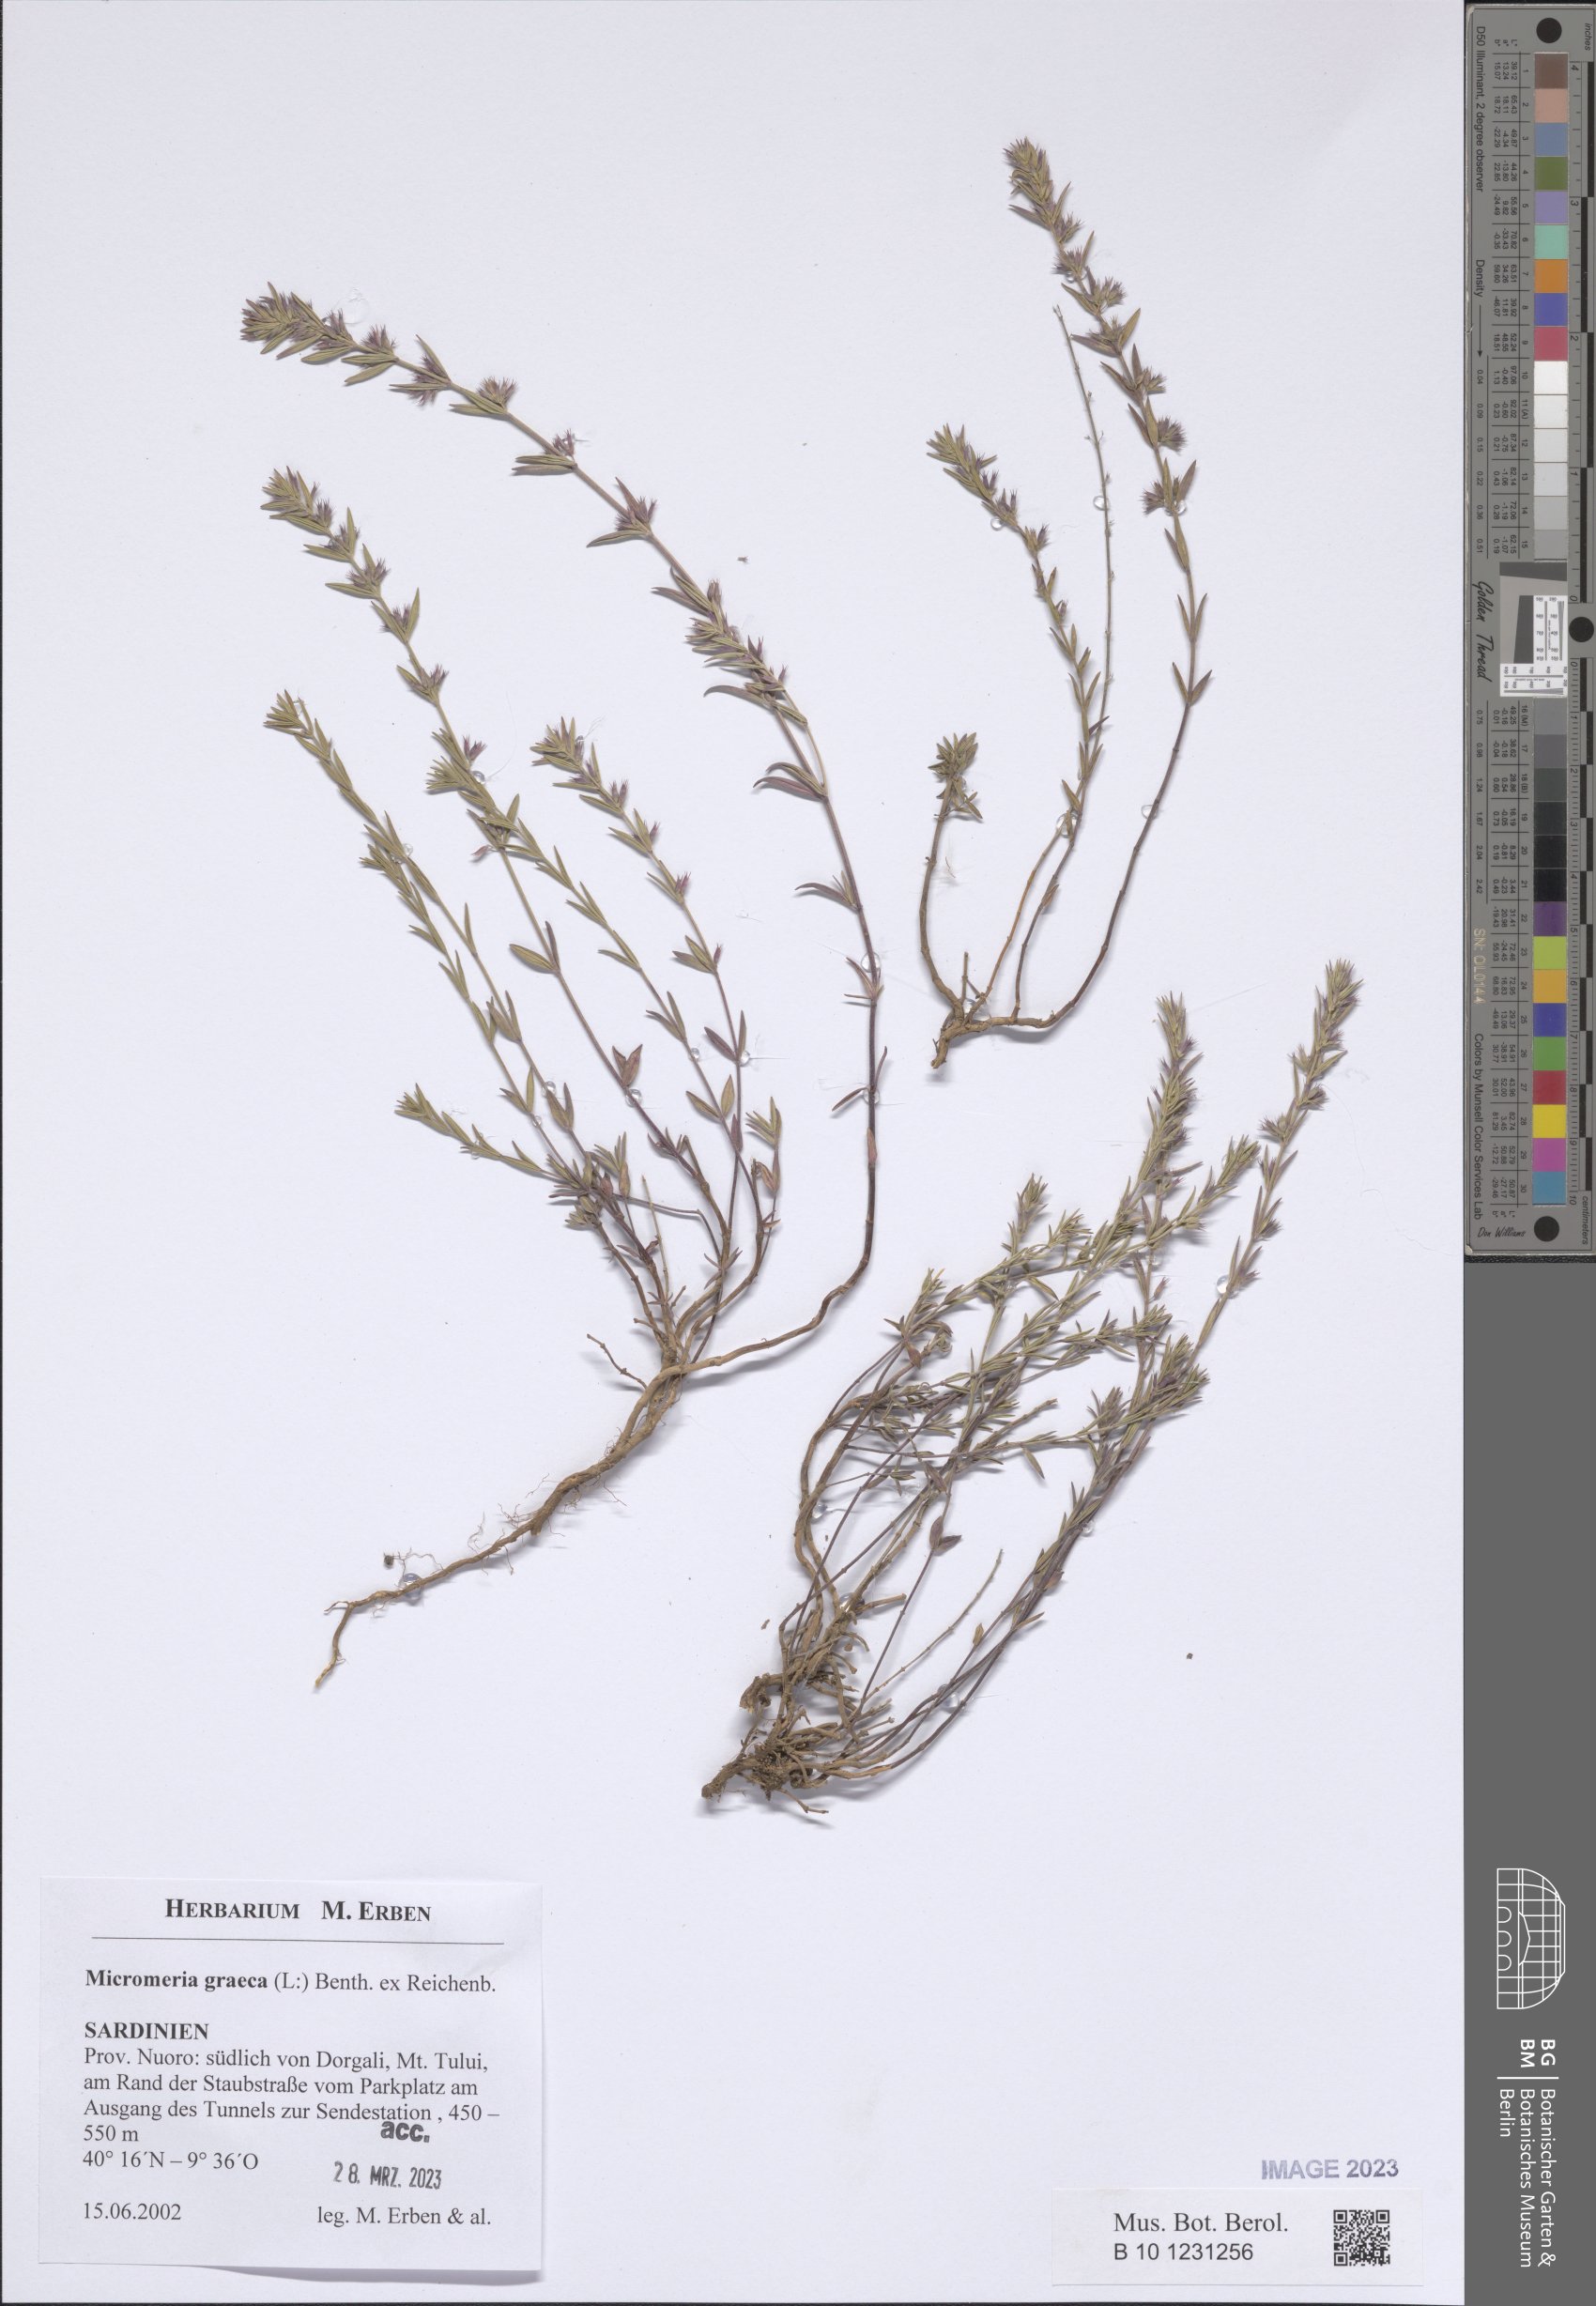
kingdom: Plantae
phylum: Tracheophyta
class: Magnoliopsida
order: Lamiales
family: Lamiaceae
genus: Micromeria
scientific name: Micromeria graeca
